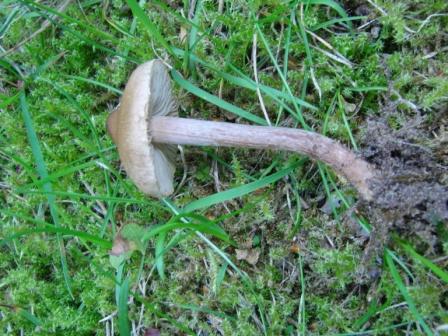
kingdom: Fungi
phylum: Basidiomycota
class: Agaricomycetes
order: Agaricales
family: Inocybaceae
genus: Inocybe
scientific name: Inocybe curvipes
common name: plæne-trævlhat
